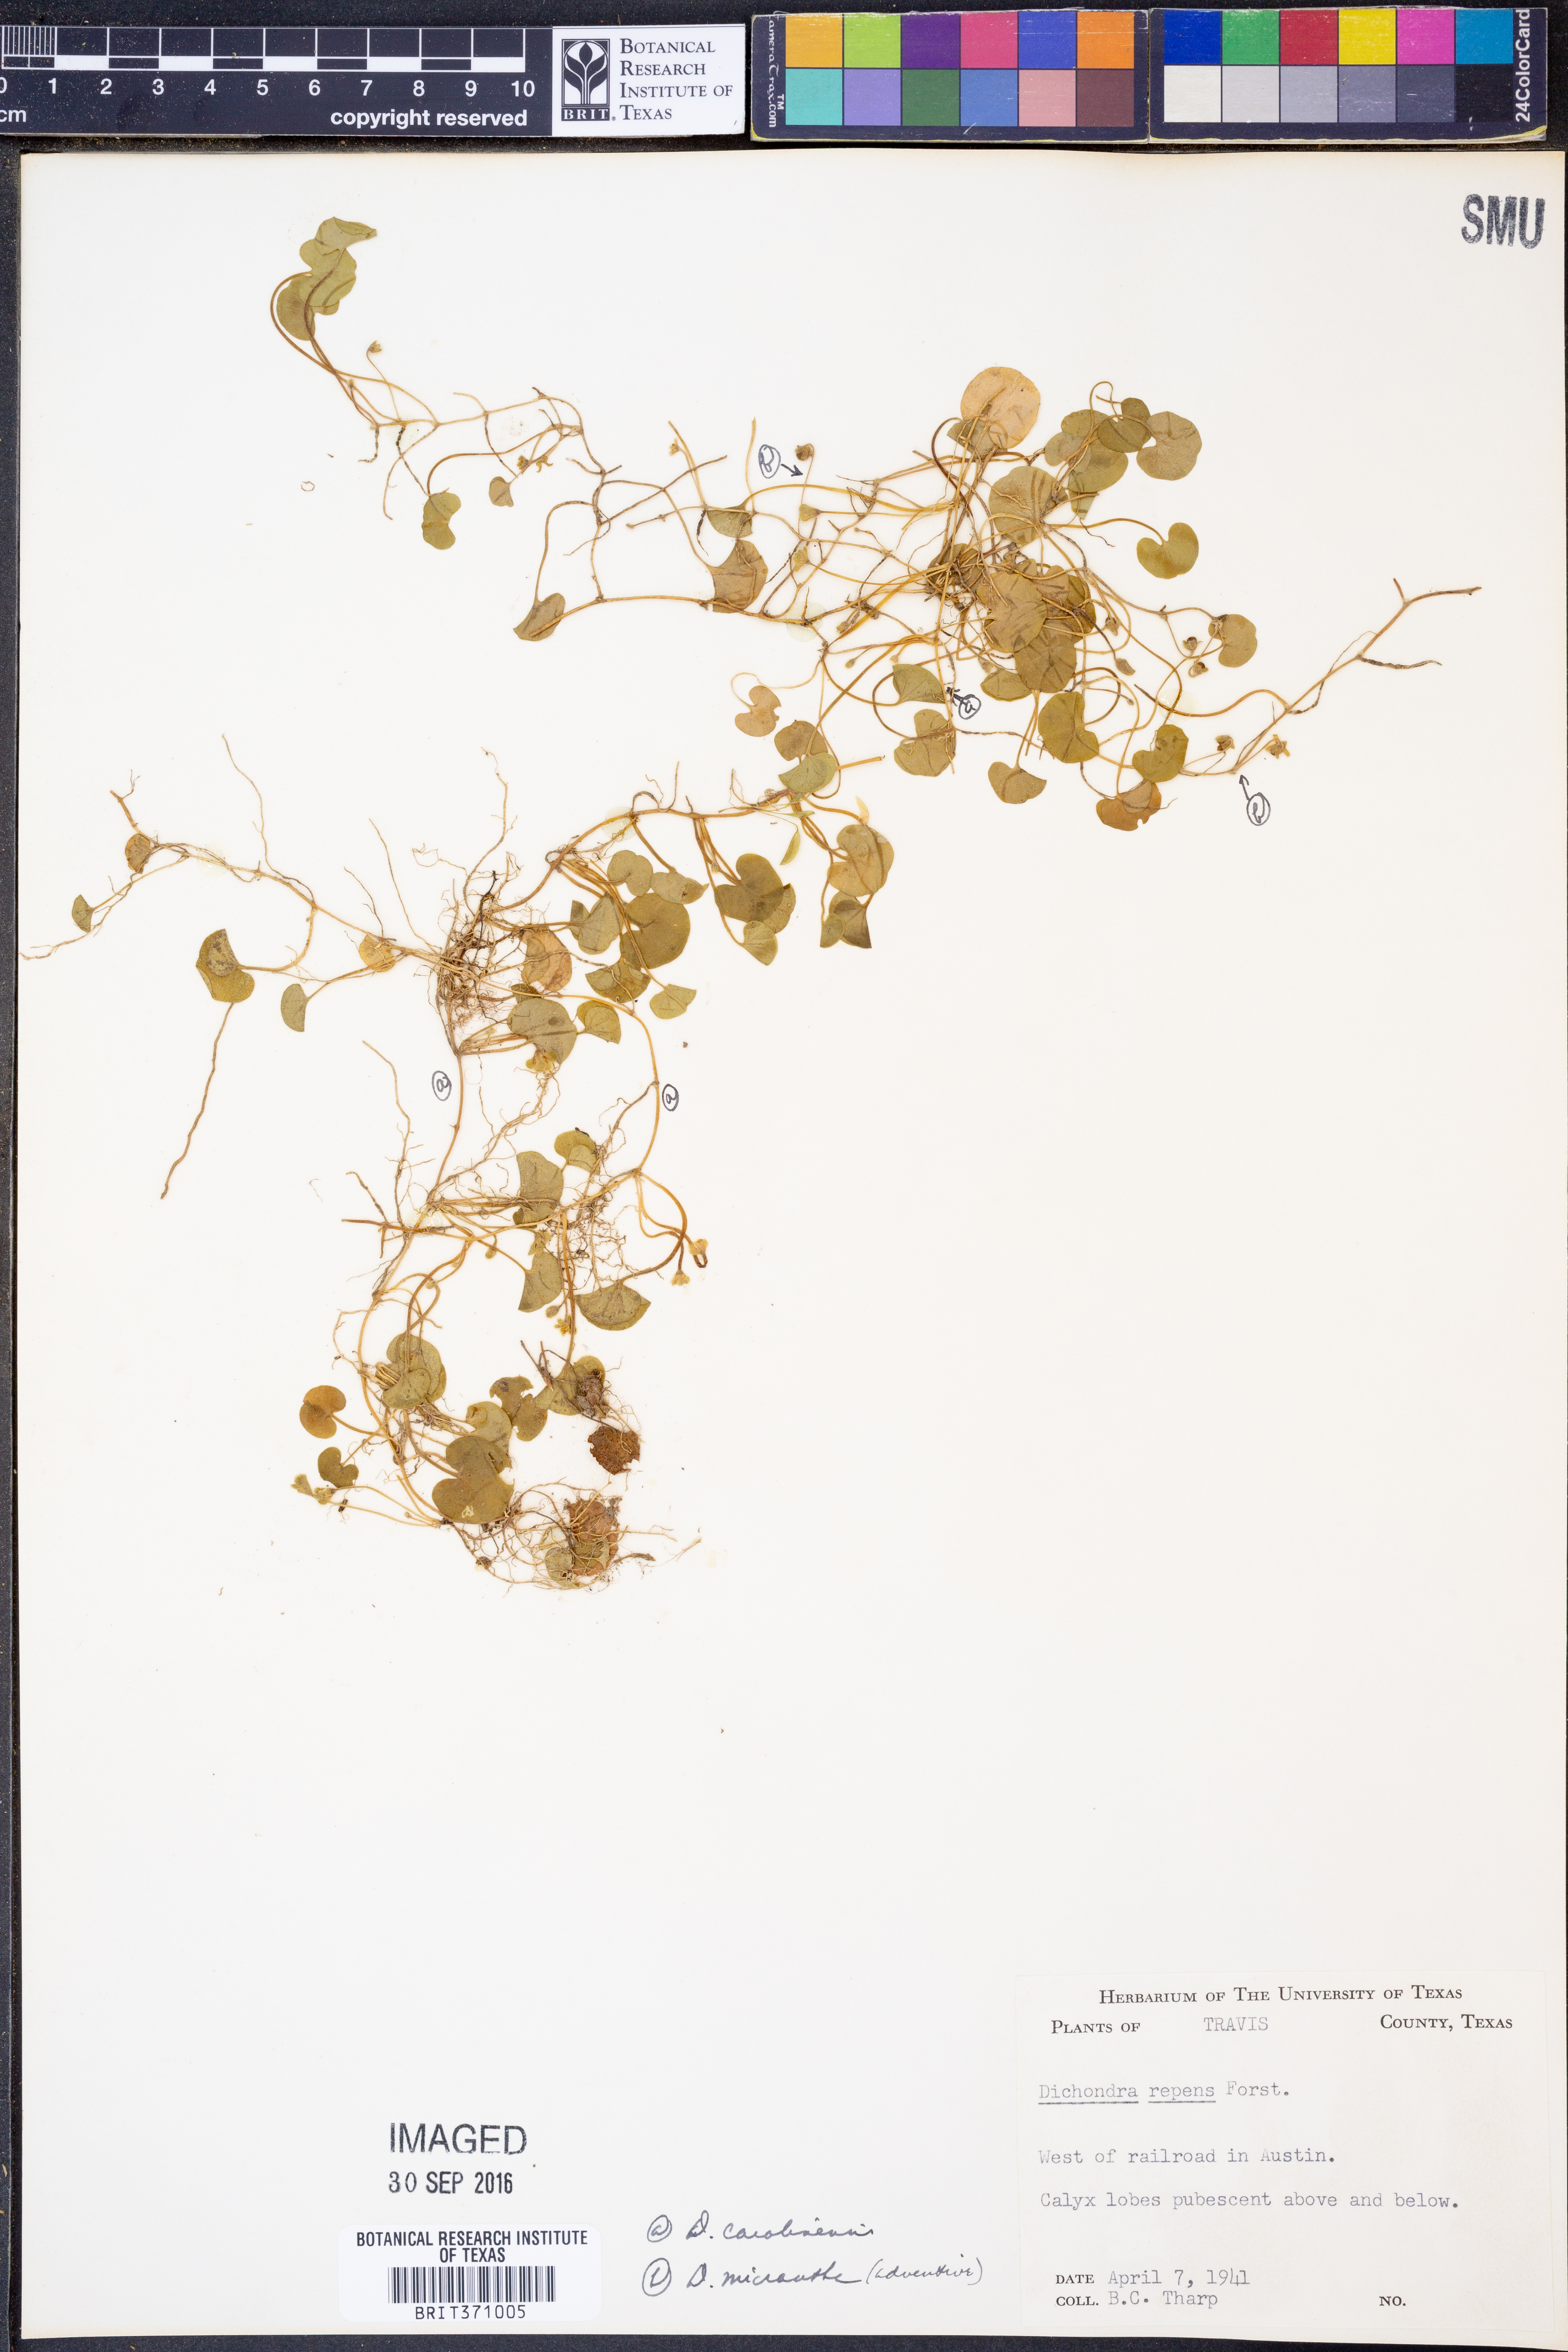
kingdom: Plantae
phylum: Tracheophyta
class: Magnoliopsida
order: Solanales
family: Convolvulaceae
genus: Dichondra
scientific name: Dichondra carolinensis
